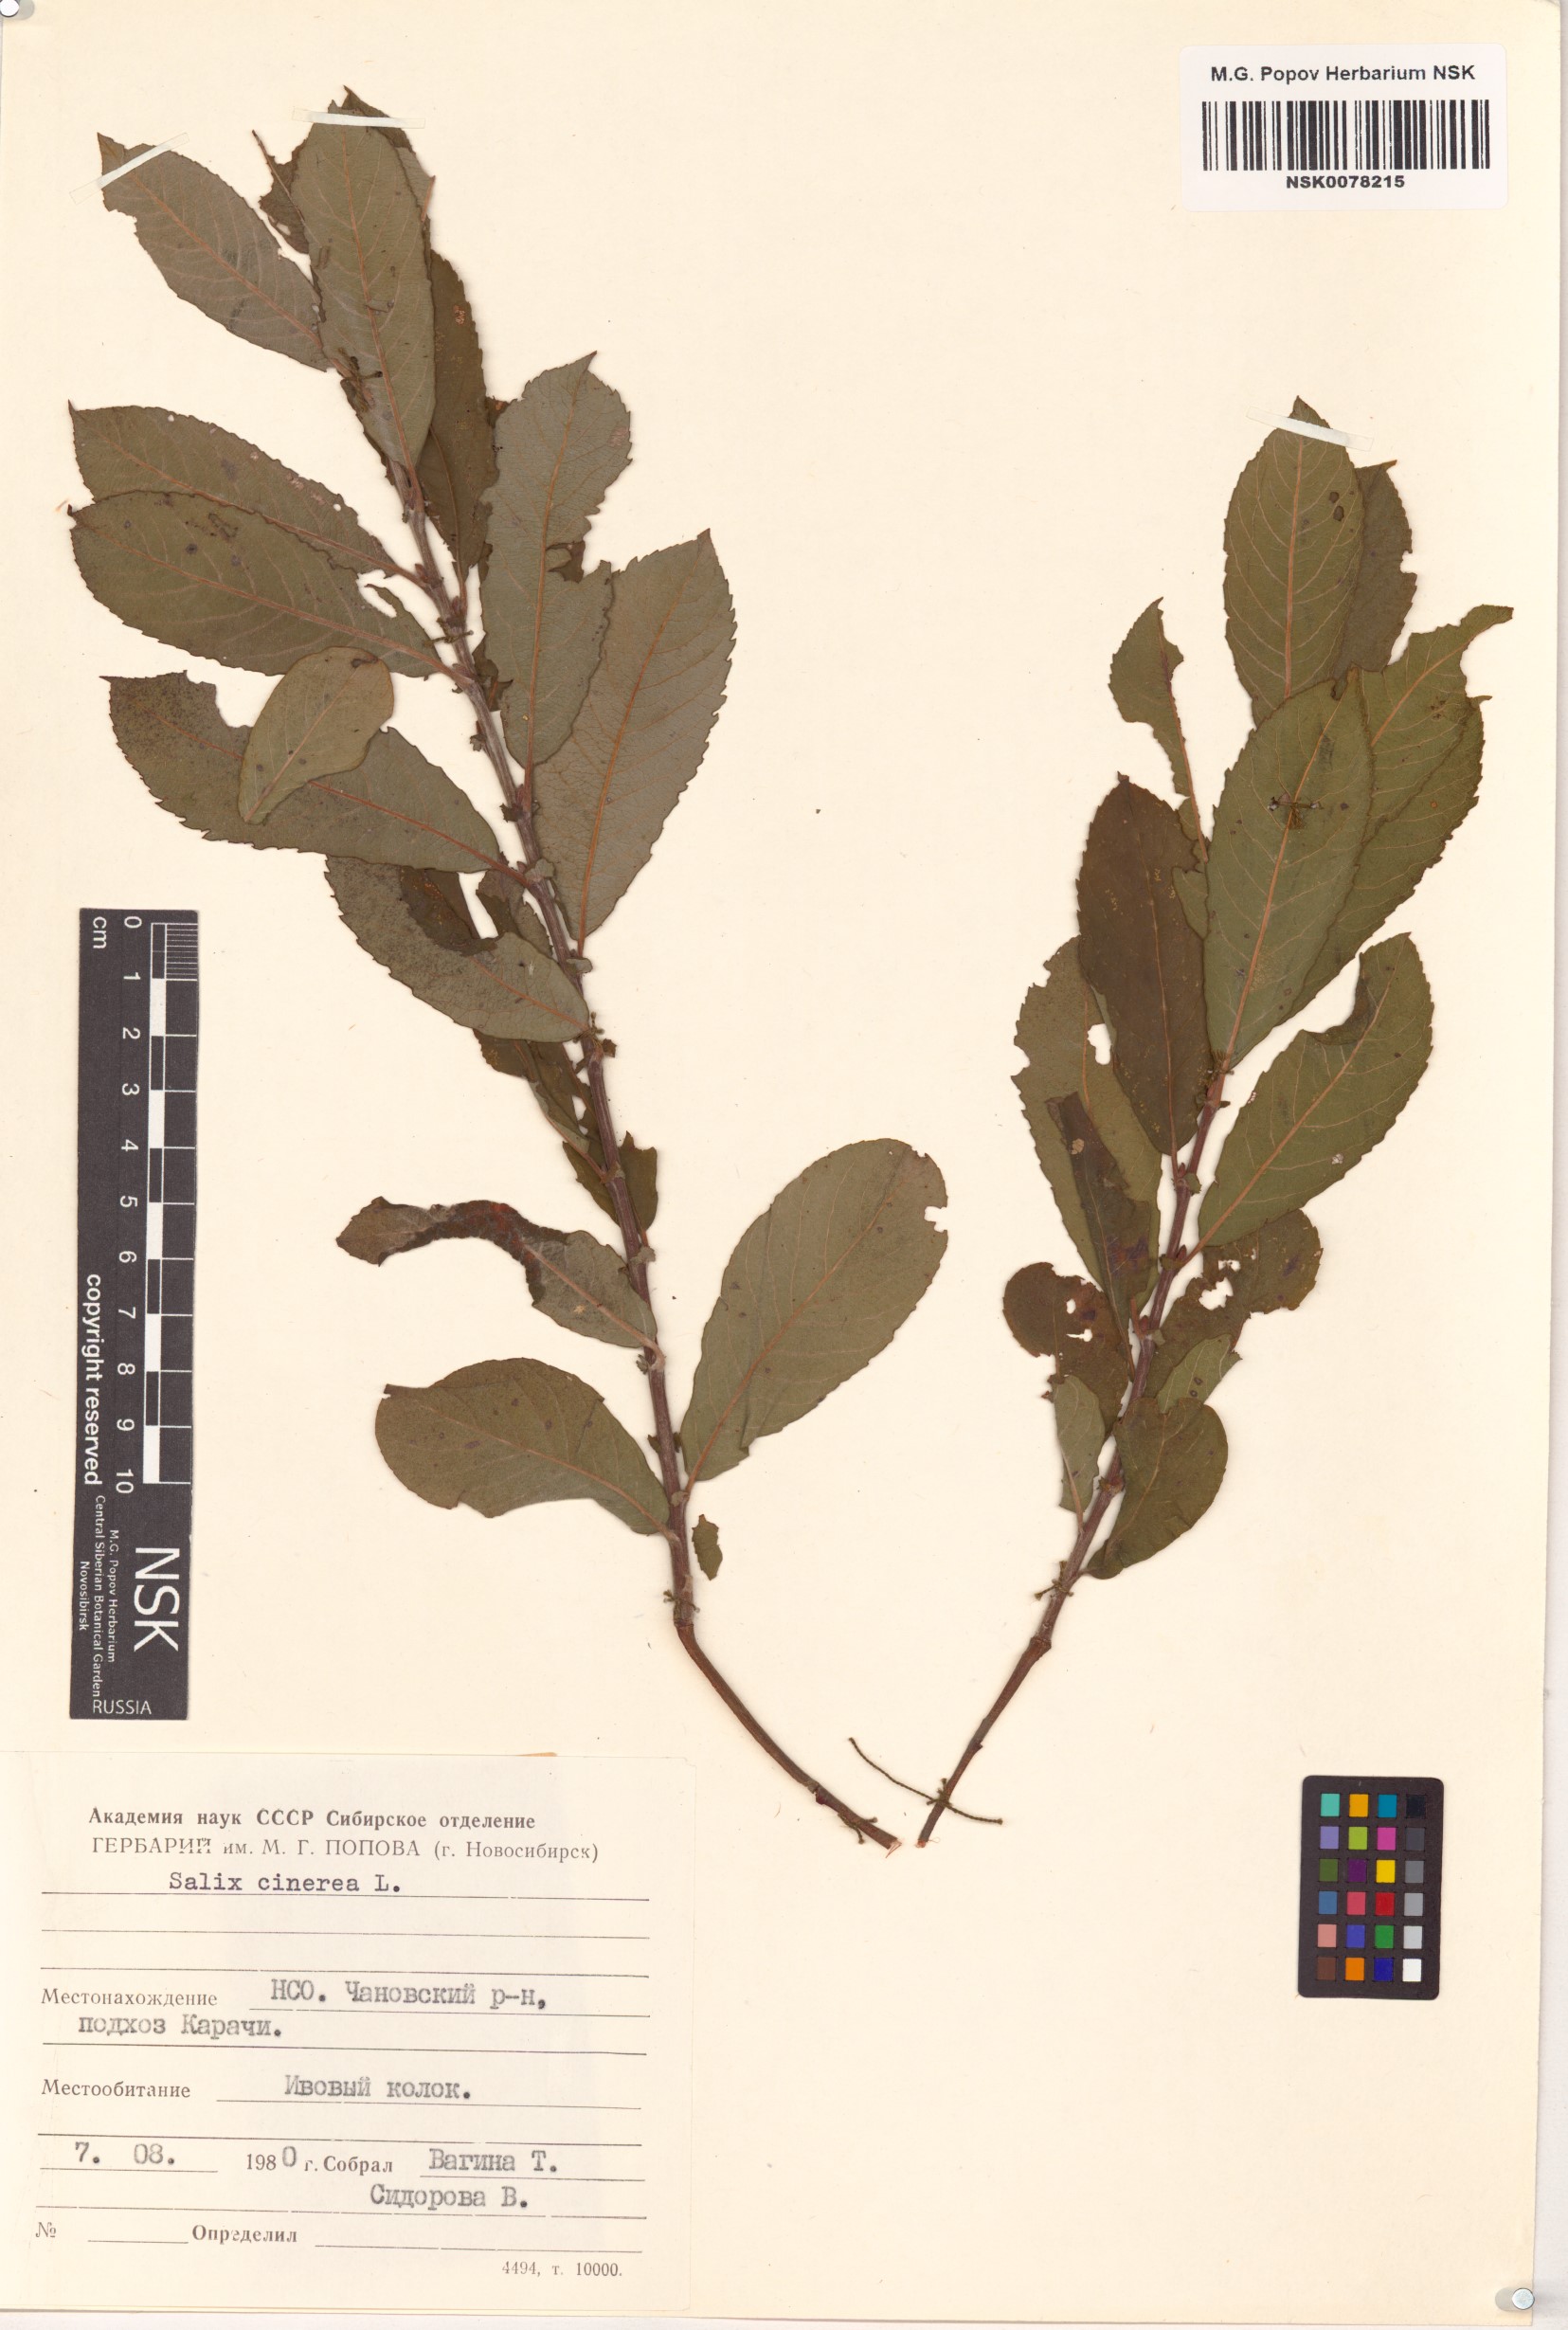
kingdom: Plantae
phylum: Tracheophyta
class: Magnoliopsida
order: Malpighiales
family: Salicaceae
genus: Salix
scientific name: Salix cinerea
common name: Common sallow
